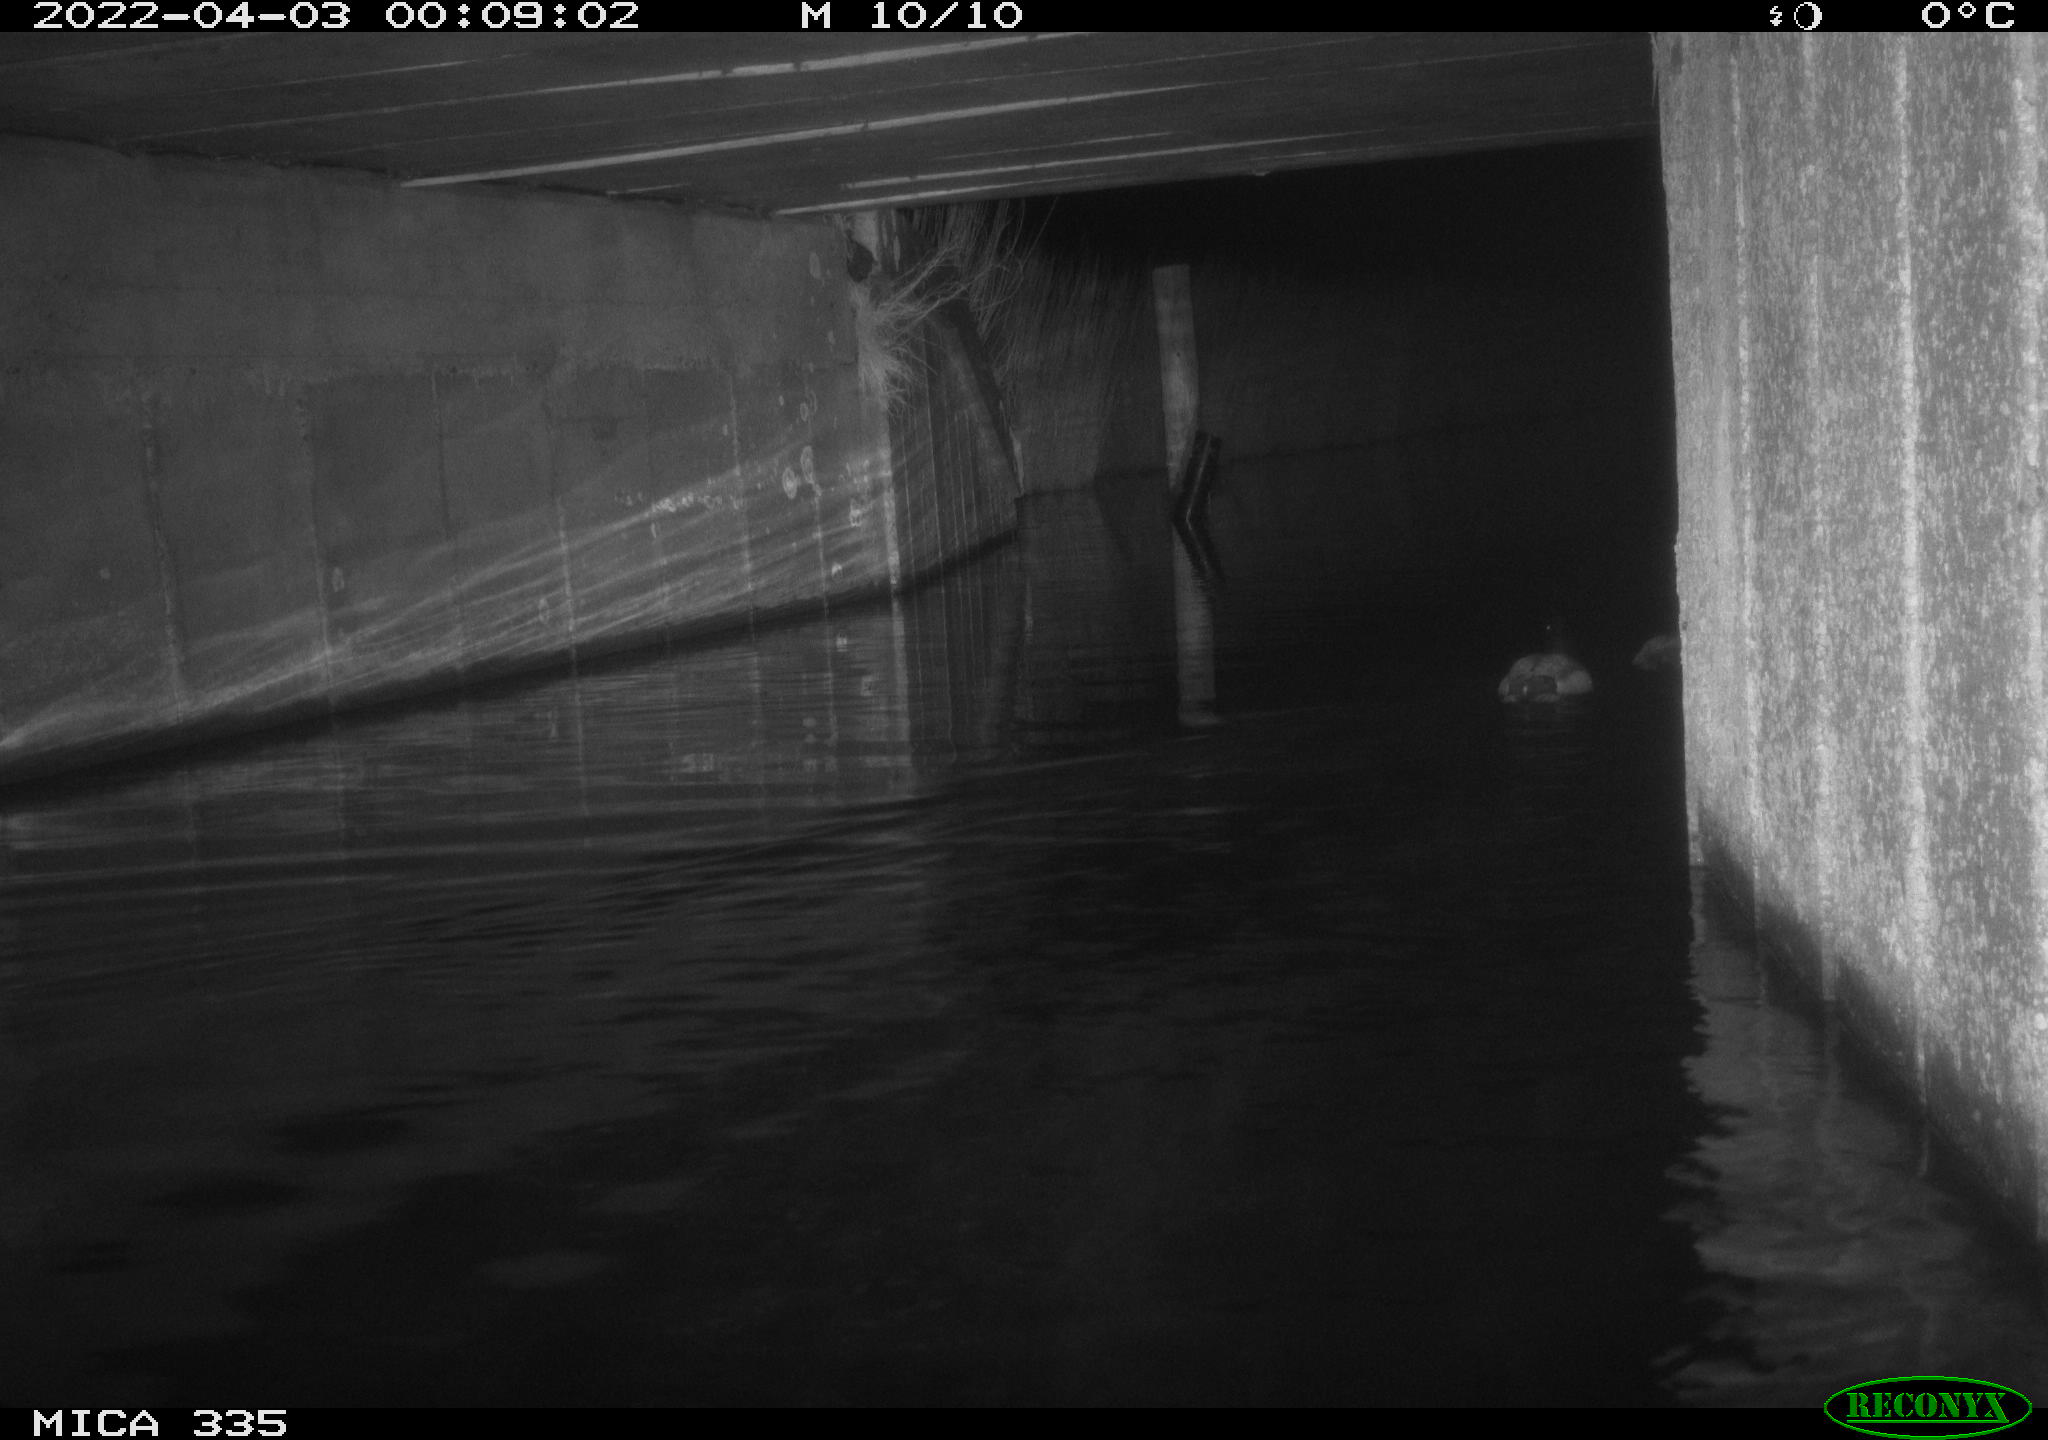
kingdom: Animalia
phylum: Chordata
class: Aves
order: Anseriformes
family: Anatidae
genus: Anas
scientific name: Anas platyrhynchos
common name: Mallard
